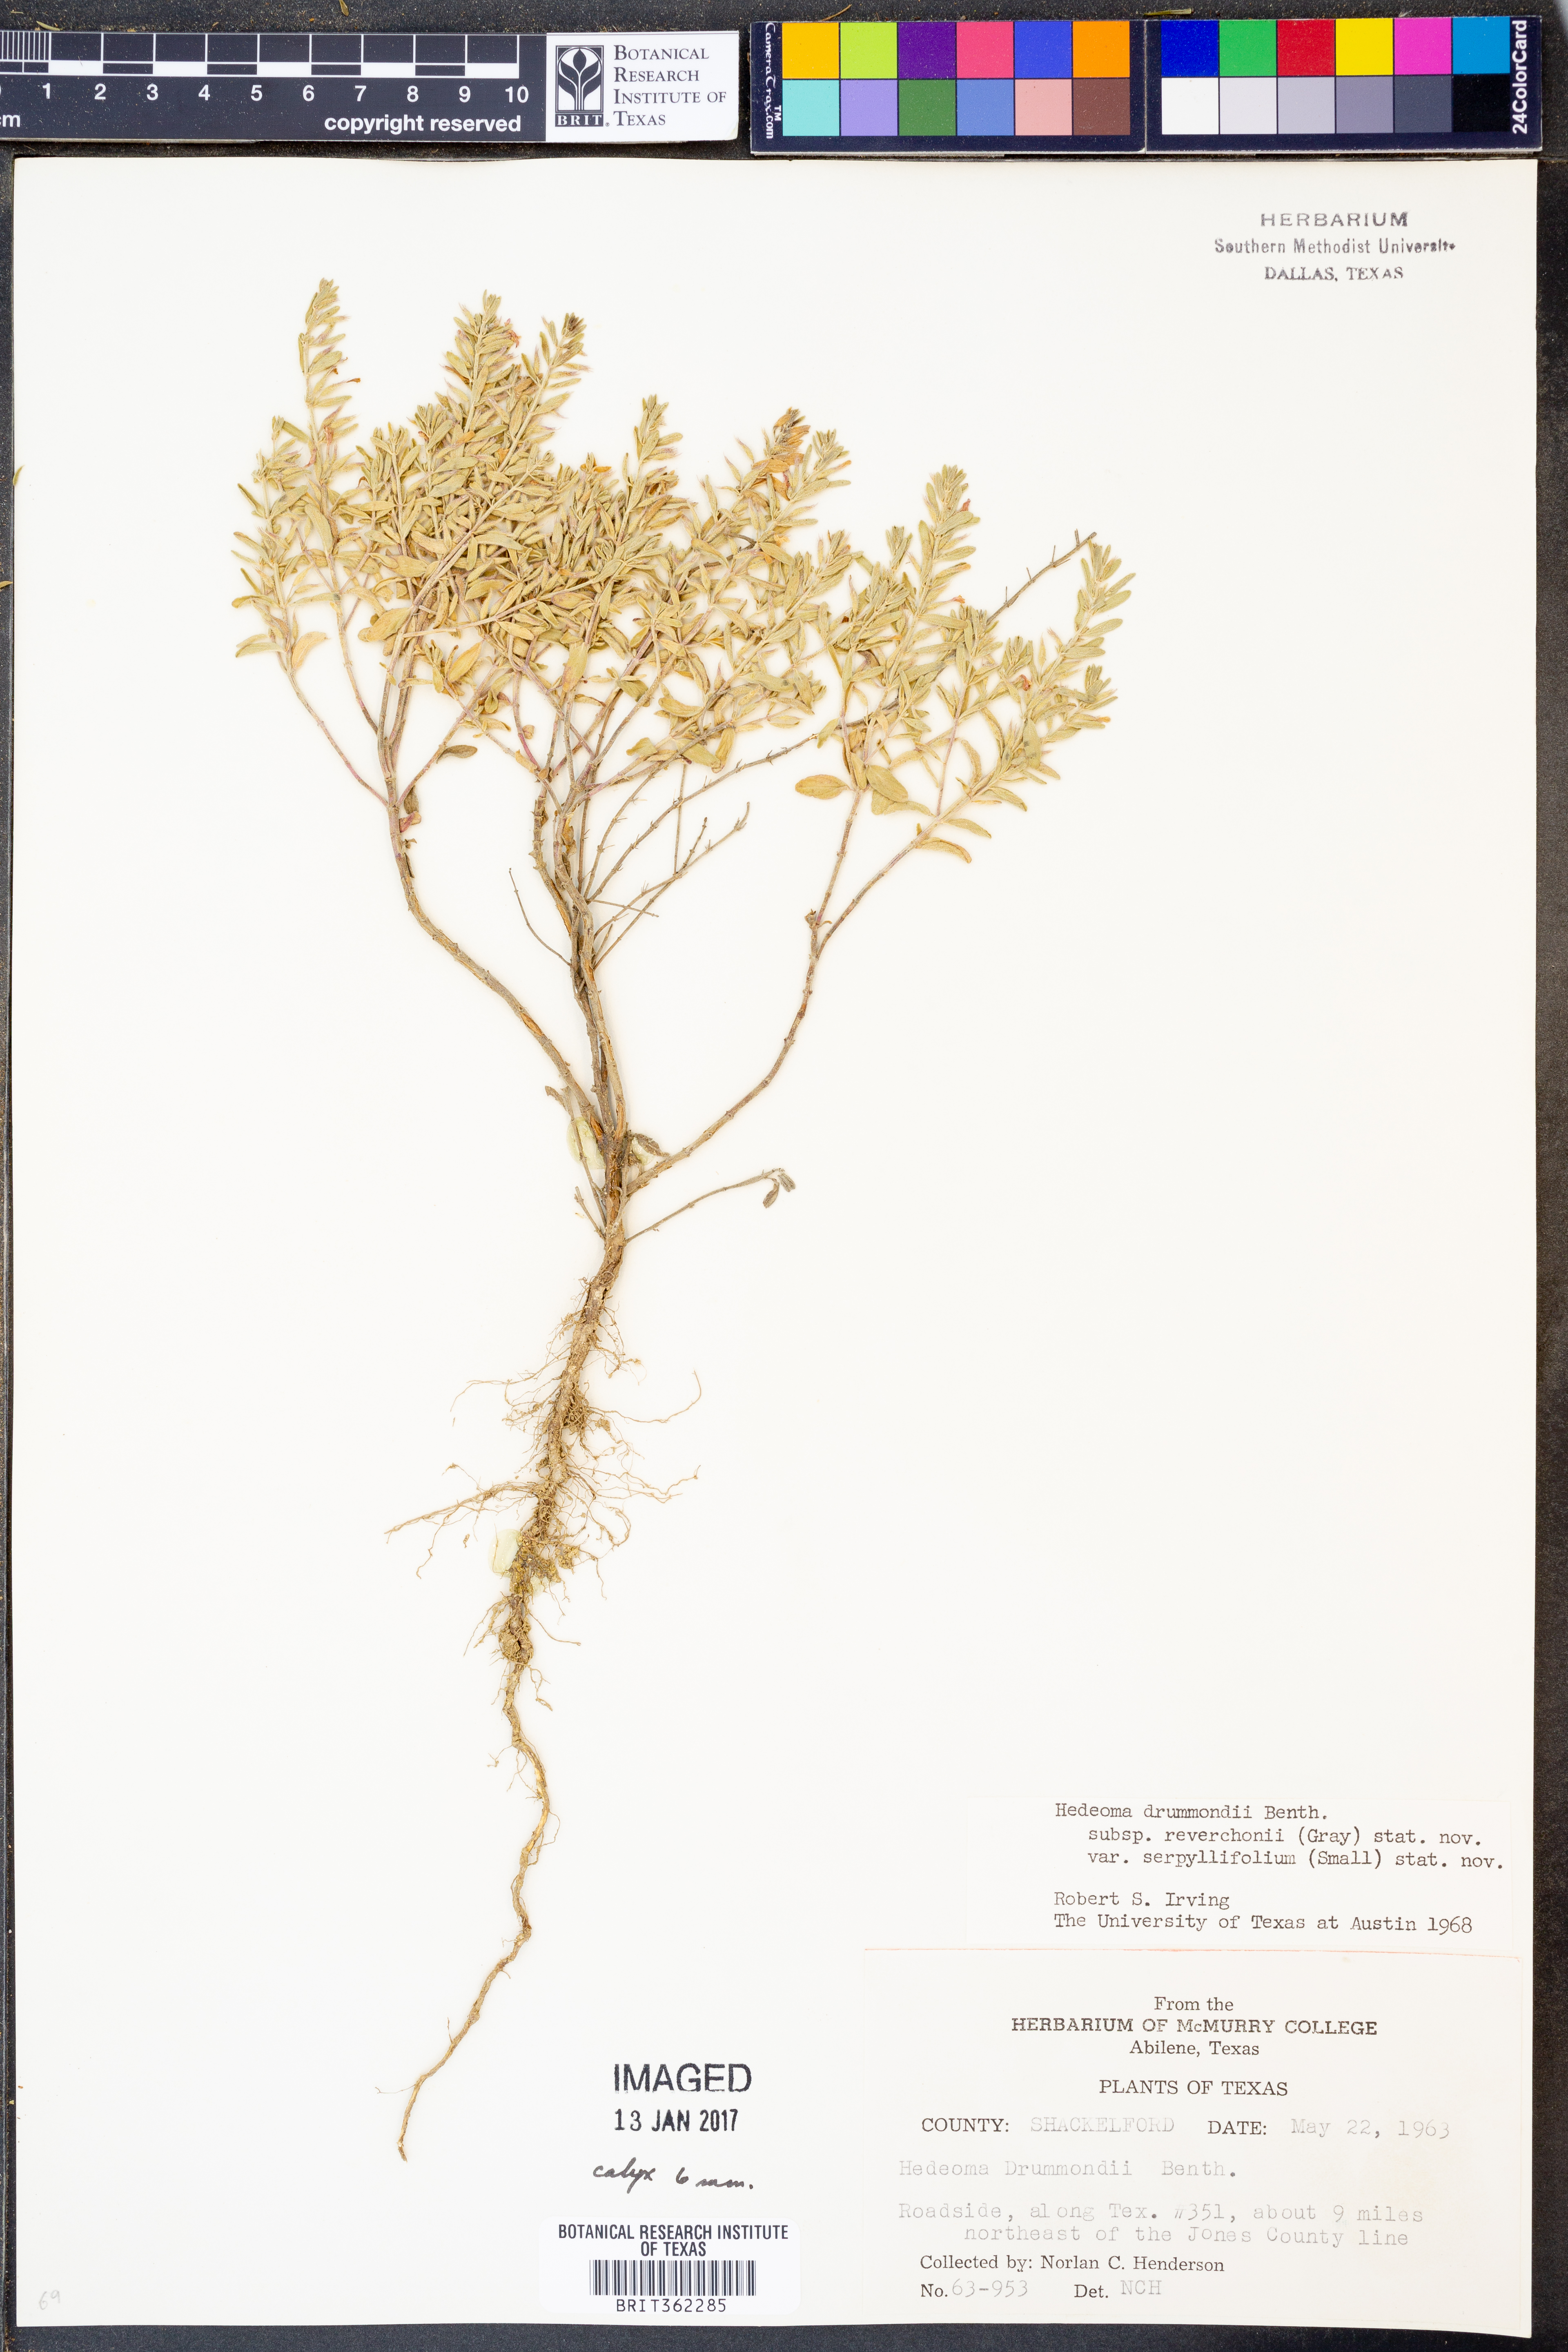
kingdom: Plantae
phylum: Tracheophyta
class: Magnoliopsida
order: Lamiales
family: Lamiaceae
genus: Hedeoma
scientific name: Hedeoma reverchonii
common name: Reverchon's false penny-royal
